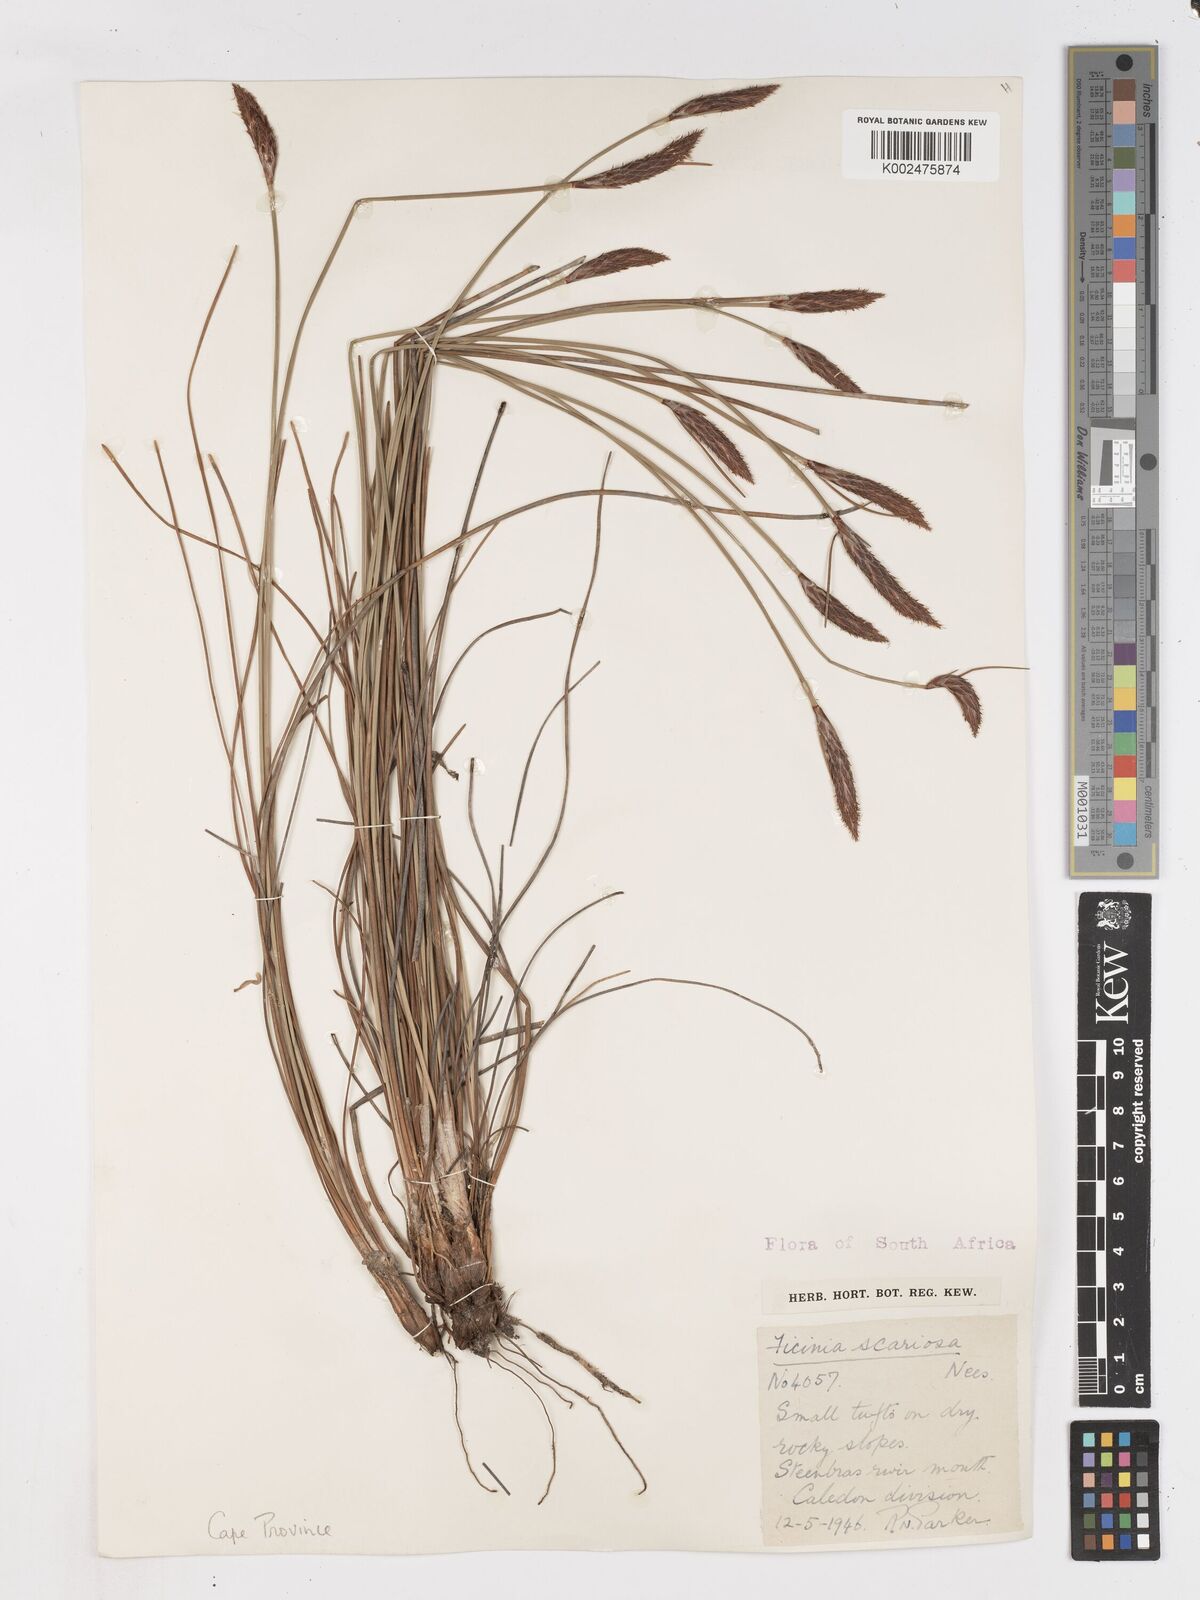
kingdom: Plantae
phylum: Tracheophyta
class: Liliopsida
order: Poales
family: Cyperaceae
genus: Ficinia
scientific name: Ficinia deusta
